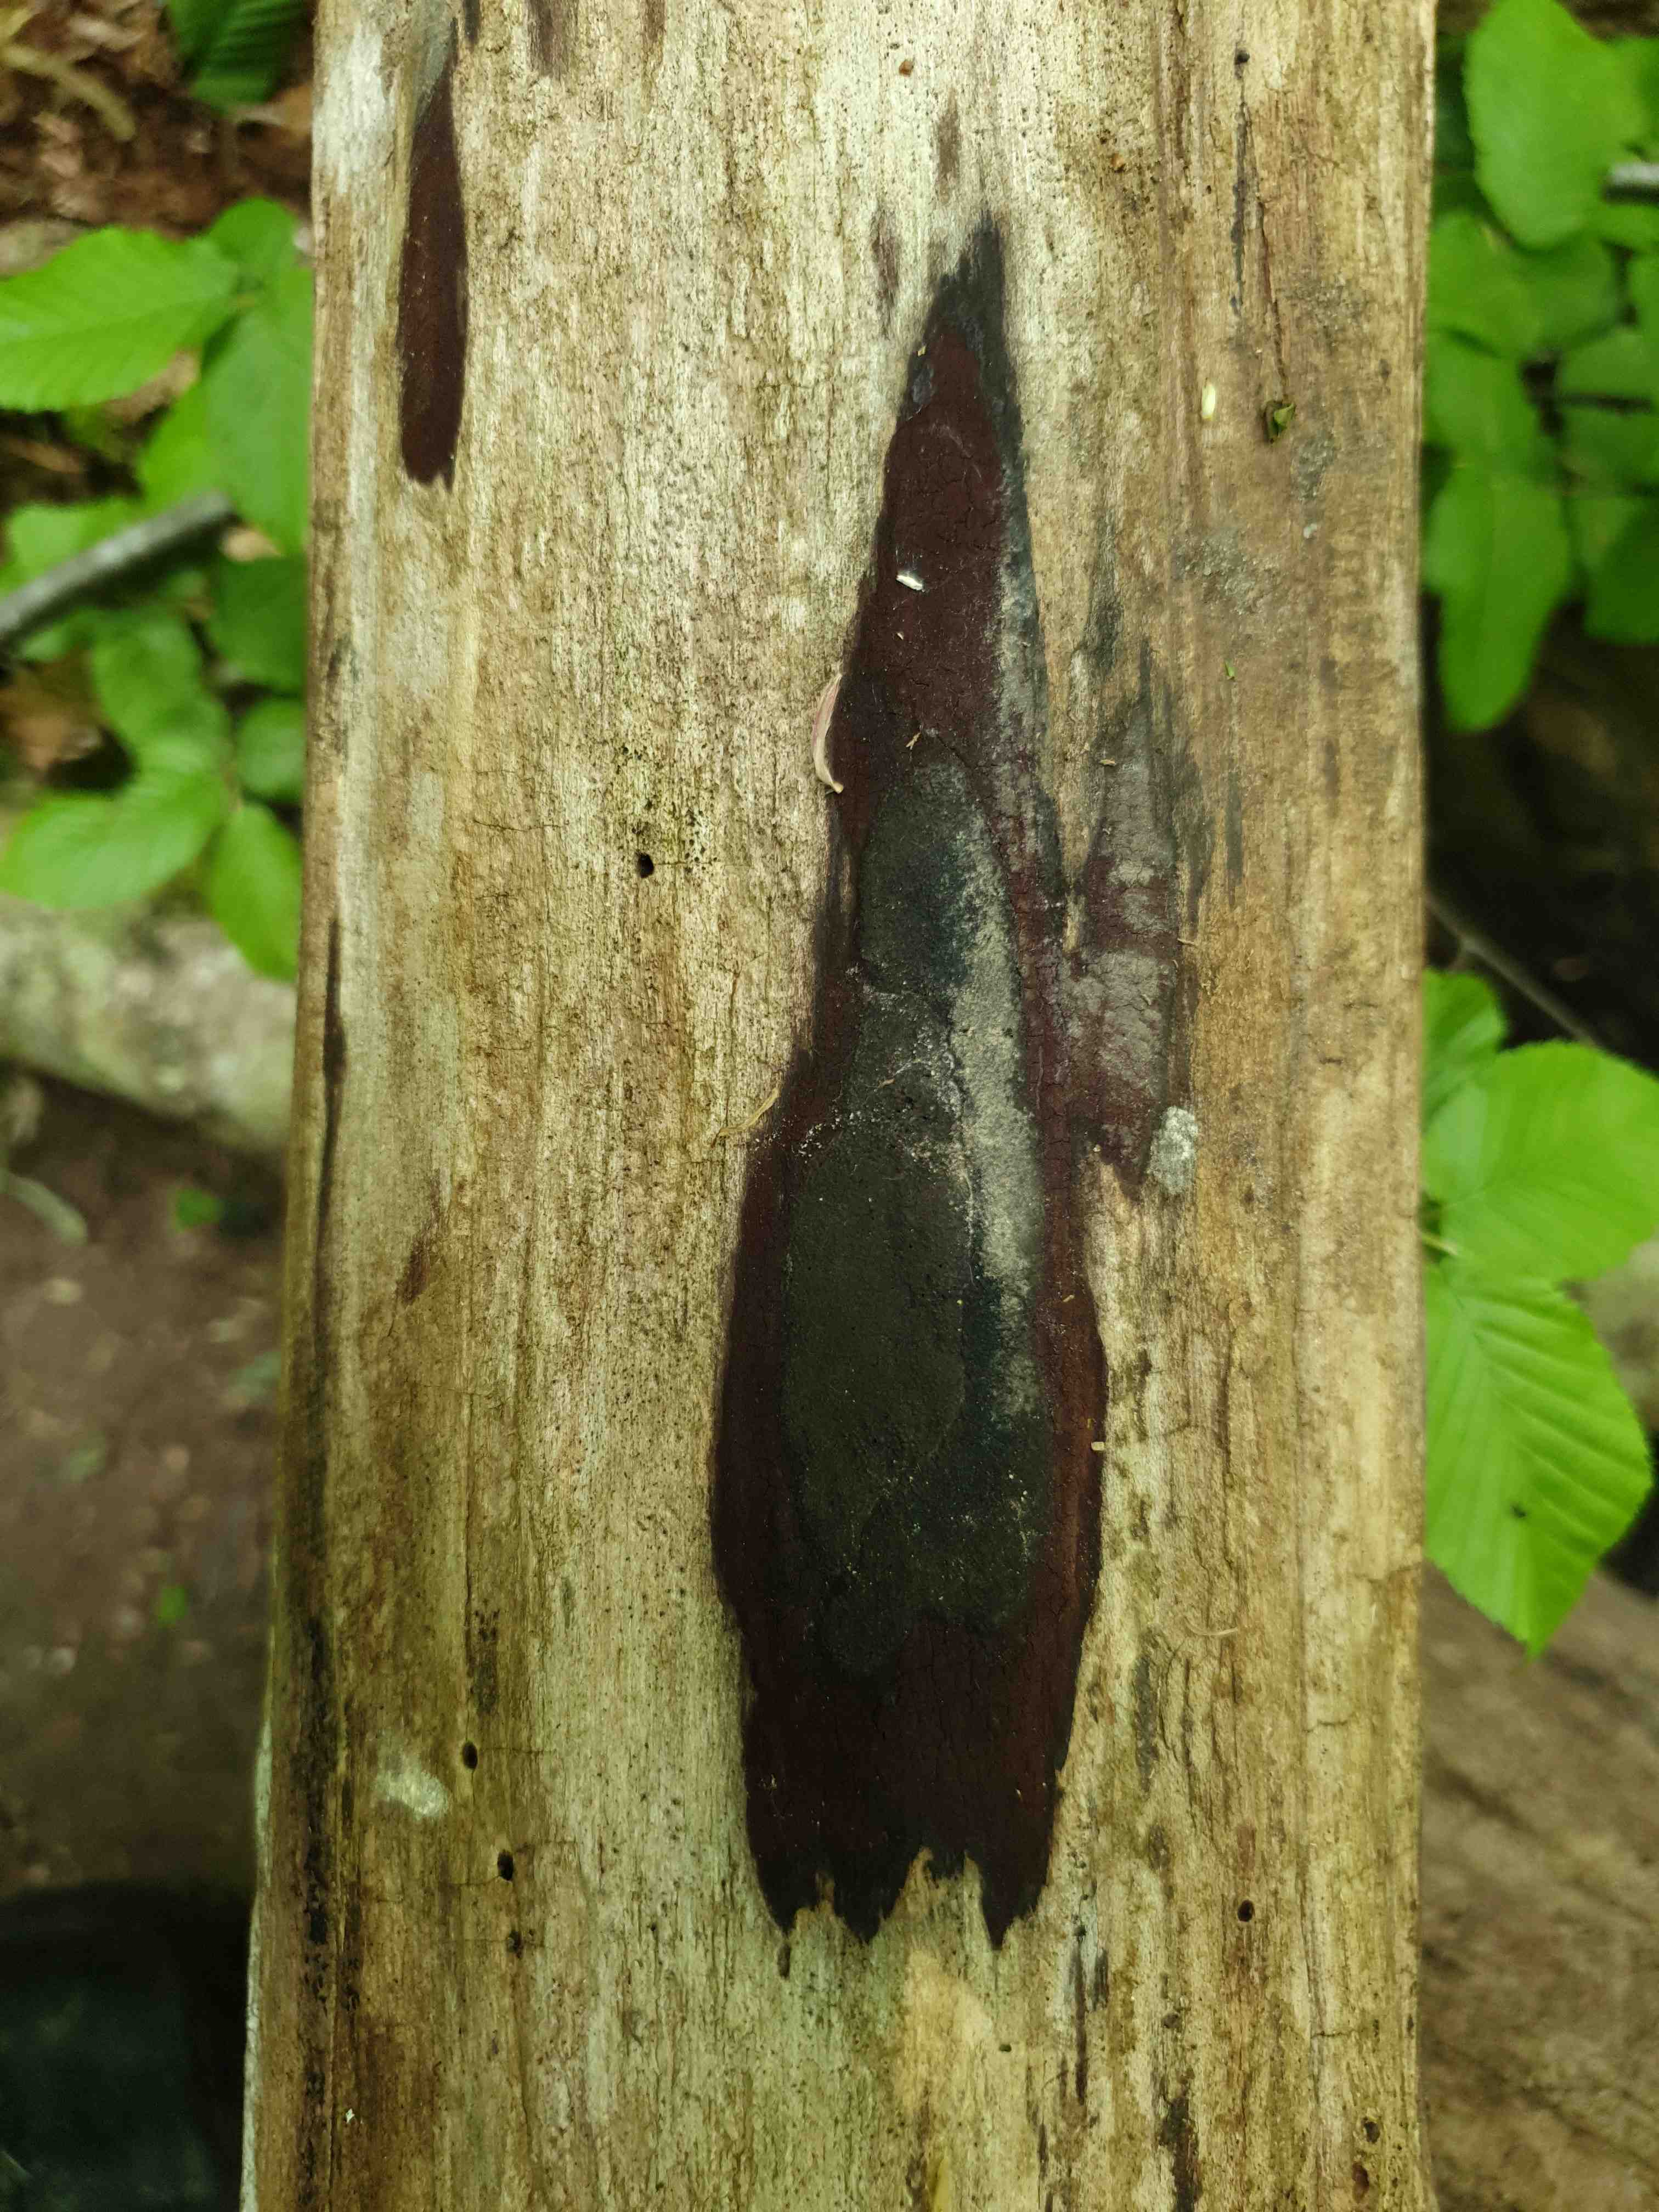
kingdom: Fungi
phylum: Ascomycota
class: Sordariomycetes
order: Xylariales
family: Hypoxylaceae
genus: Hypoxylon
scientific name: Hypoxylon macrocarpum
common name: skorpe-kulbær
